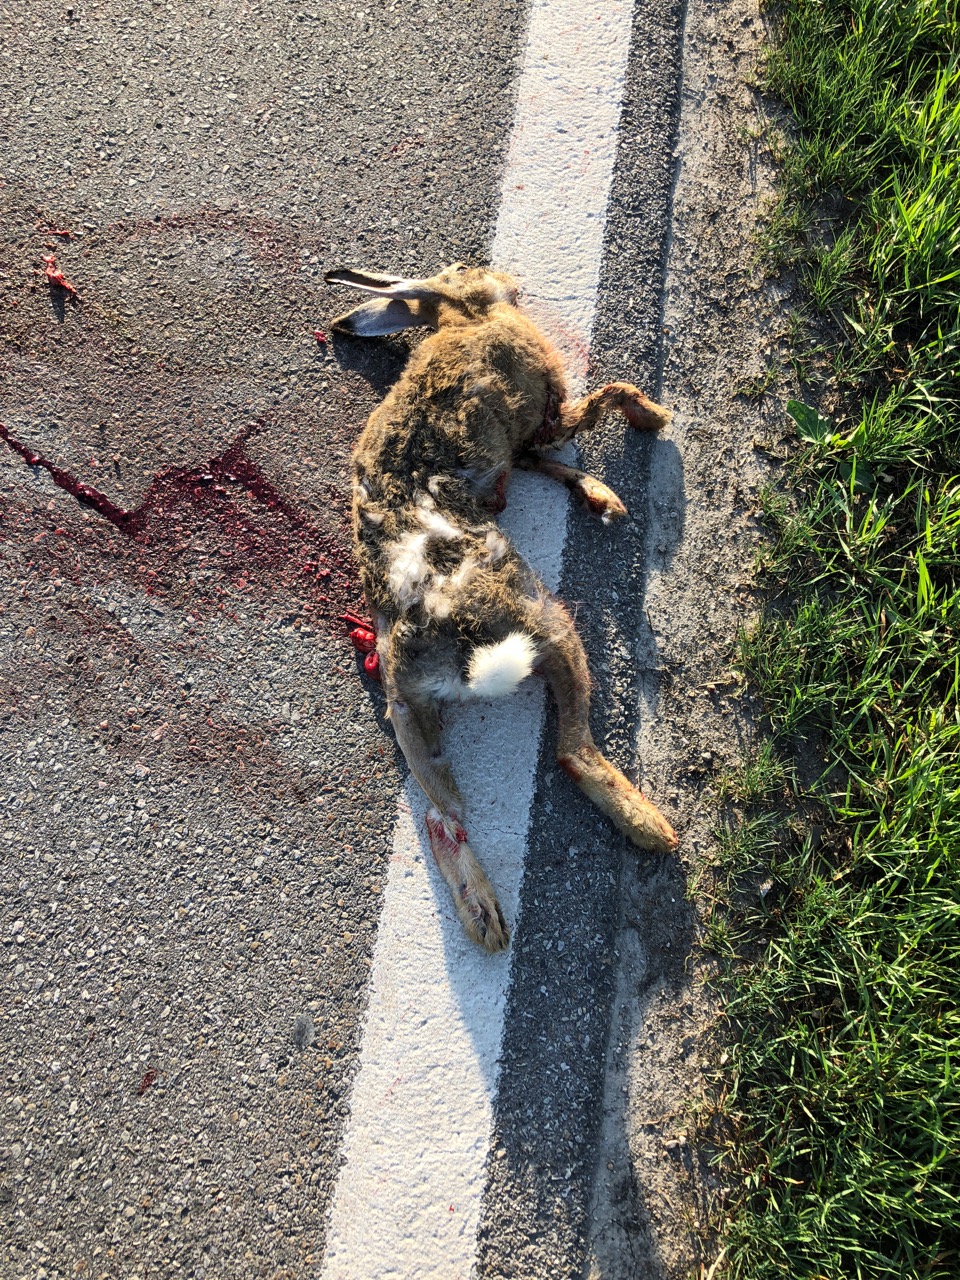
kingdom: Animalia
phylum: Chordata
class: Mammalia
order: Lagomorpha
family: Leporidae
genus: Lepus
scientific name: Lepus europaeus
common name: European hare
